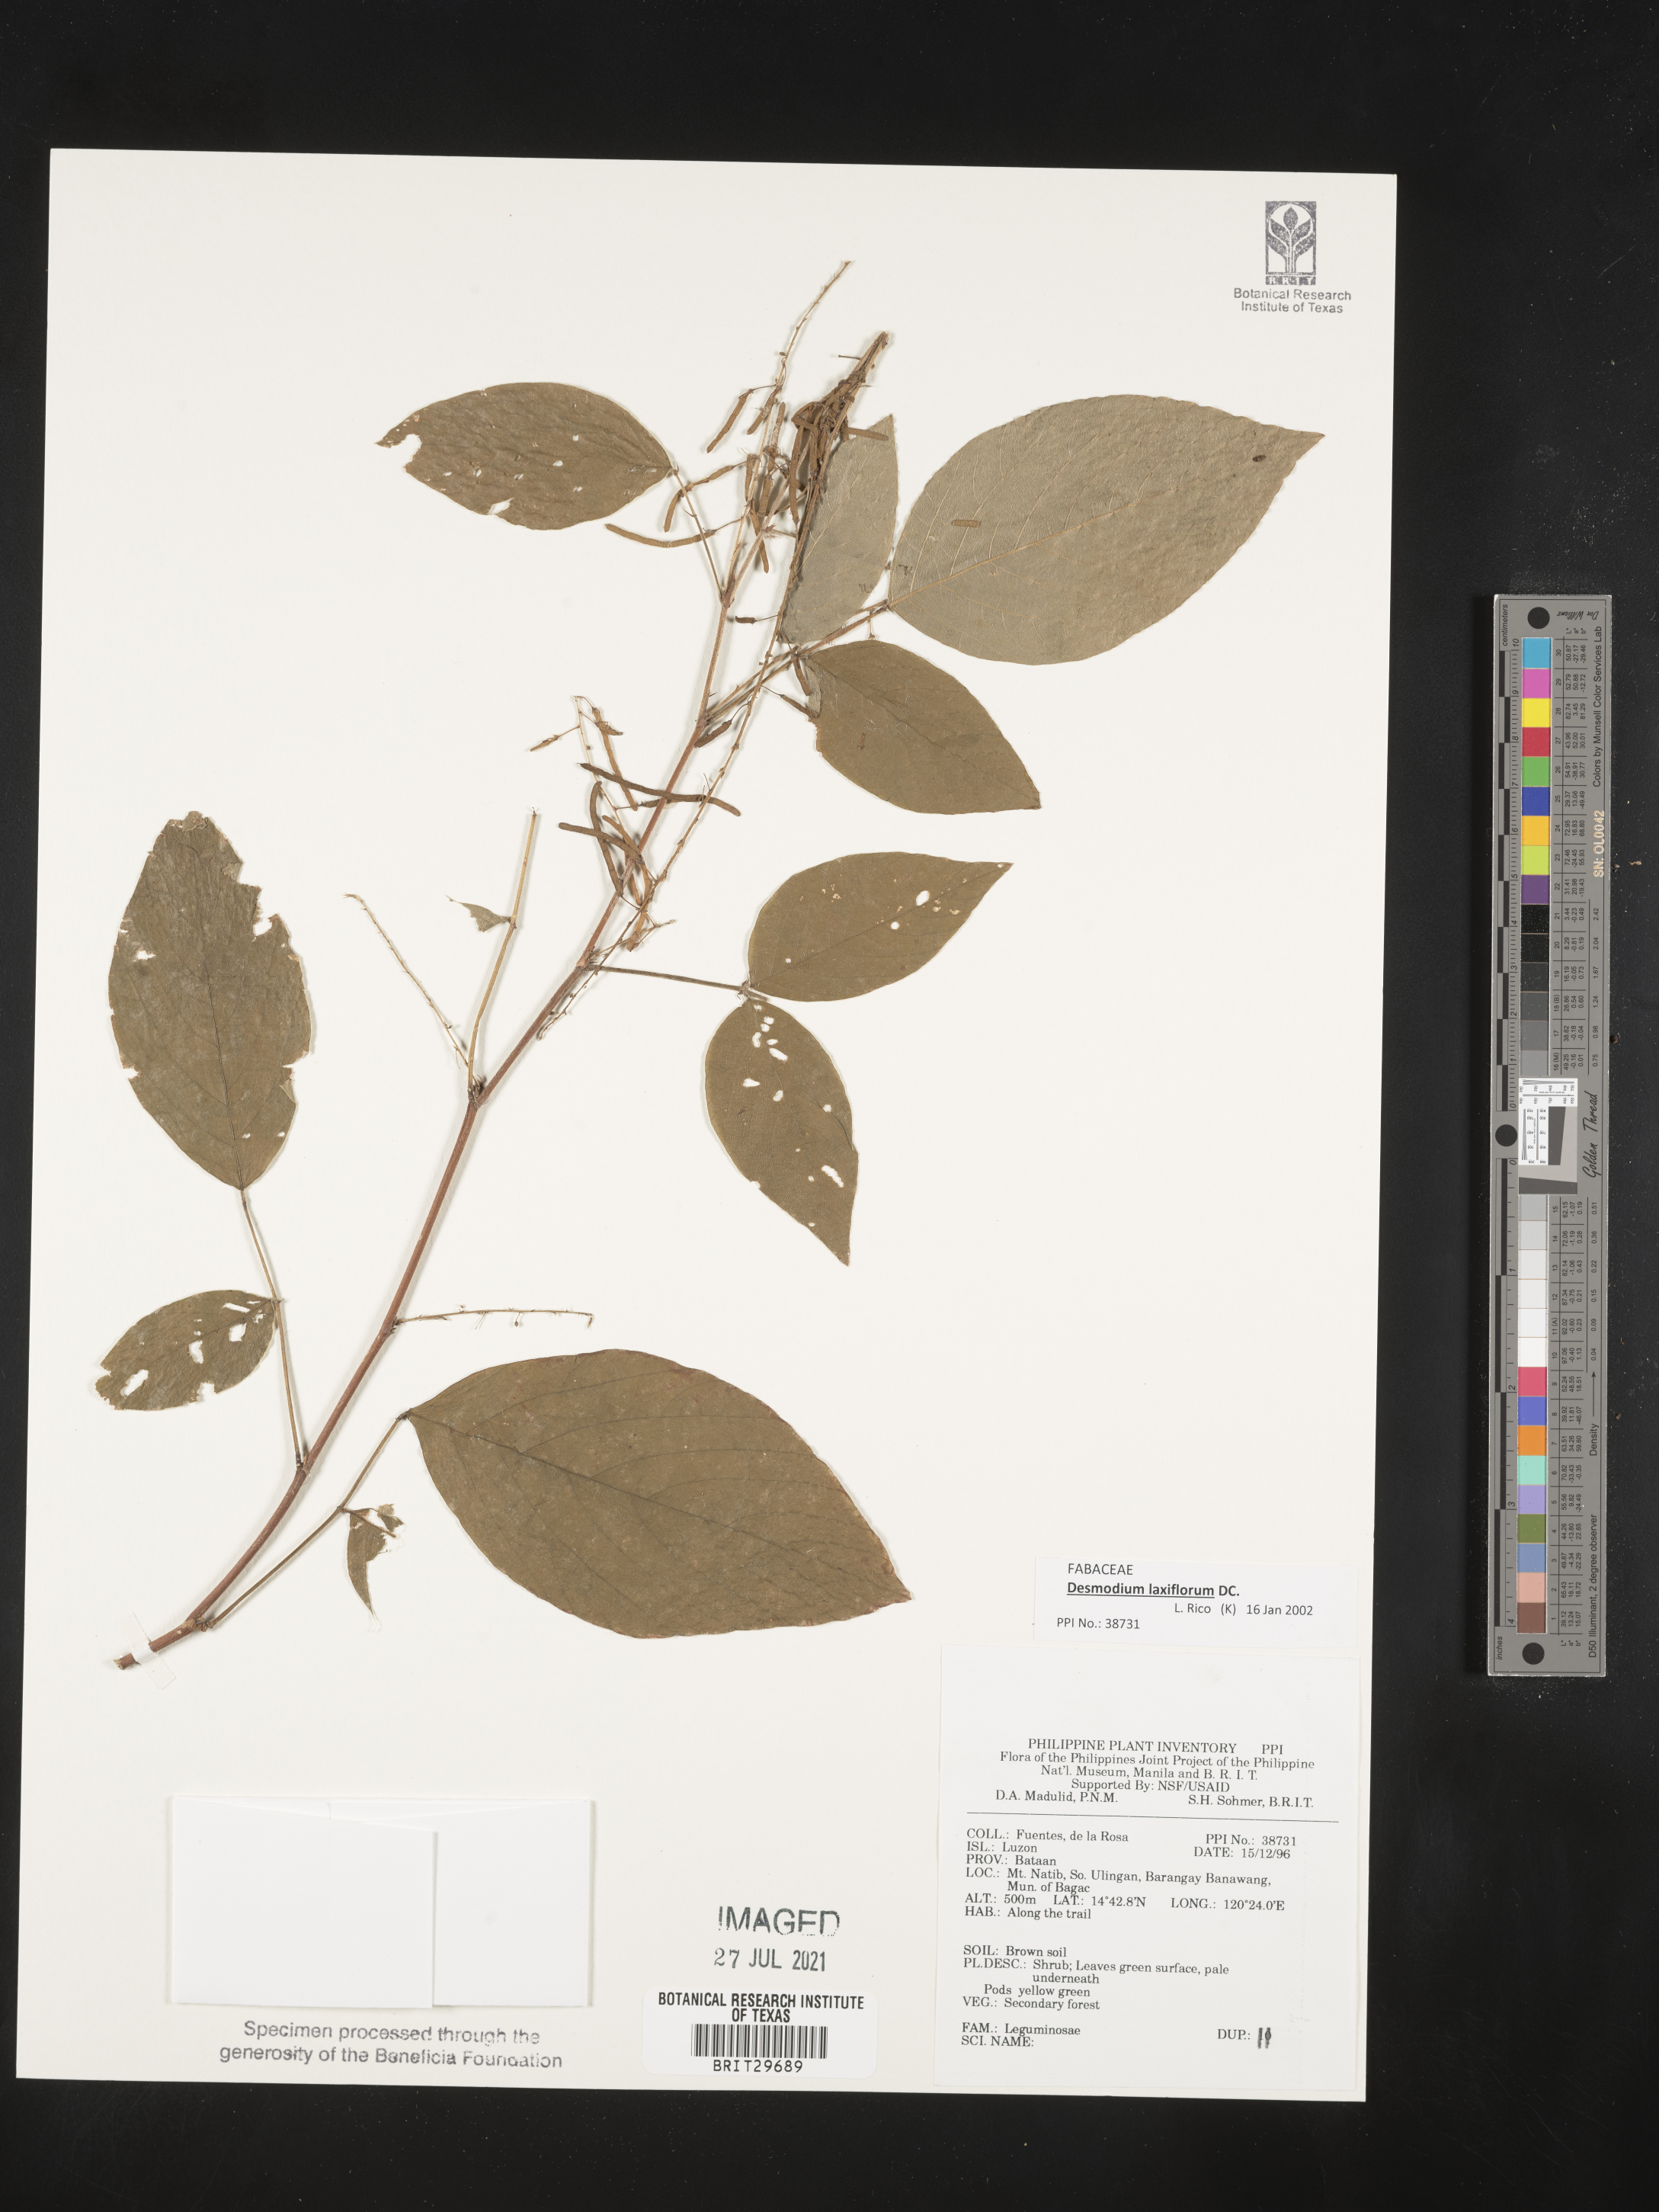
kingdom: Plantae
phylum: Tracheophyta
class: Magnoliopsida
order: Fabales
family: Fabaceae
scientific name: Fabaceae
